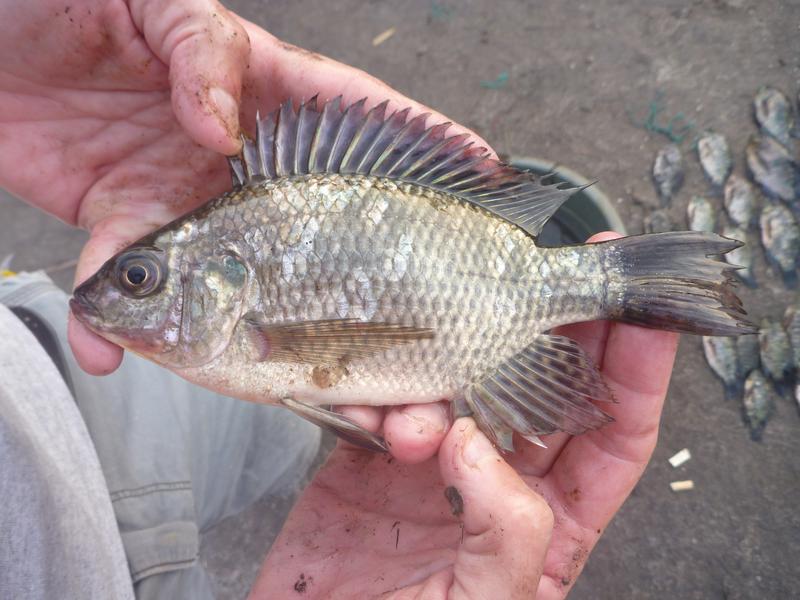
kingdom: Animalia
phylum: Chordata
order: Perciformes
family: Cichlidae
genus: Oreochromis
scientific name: Oreochromis leucostictus
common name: Blue spotted tilapia
